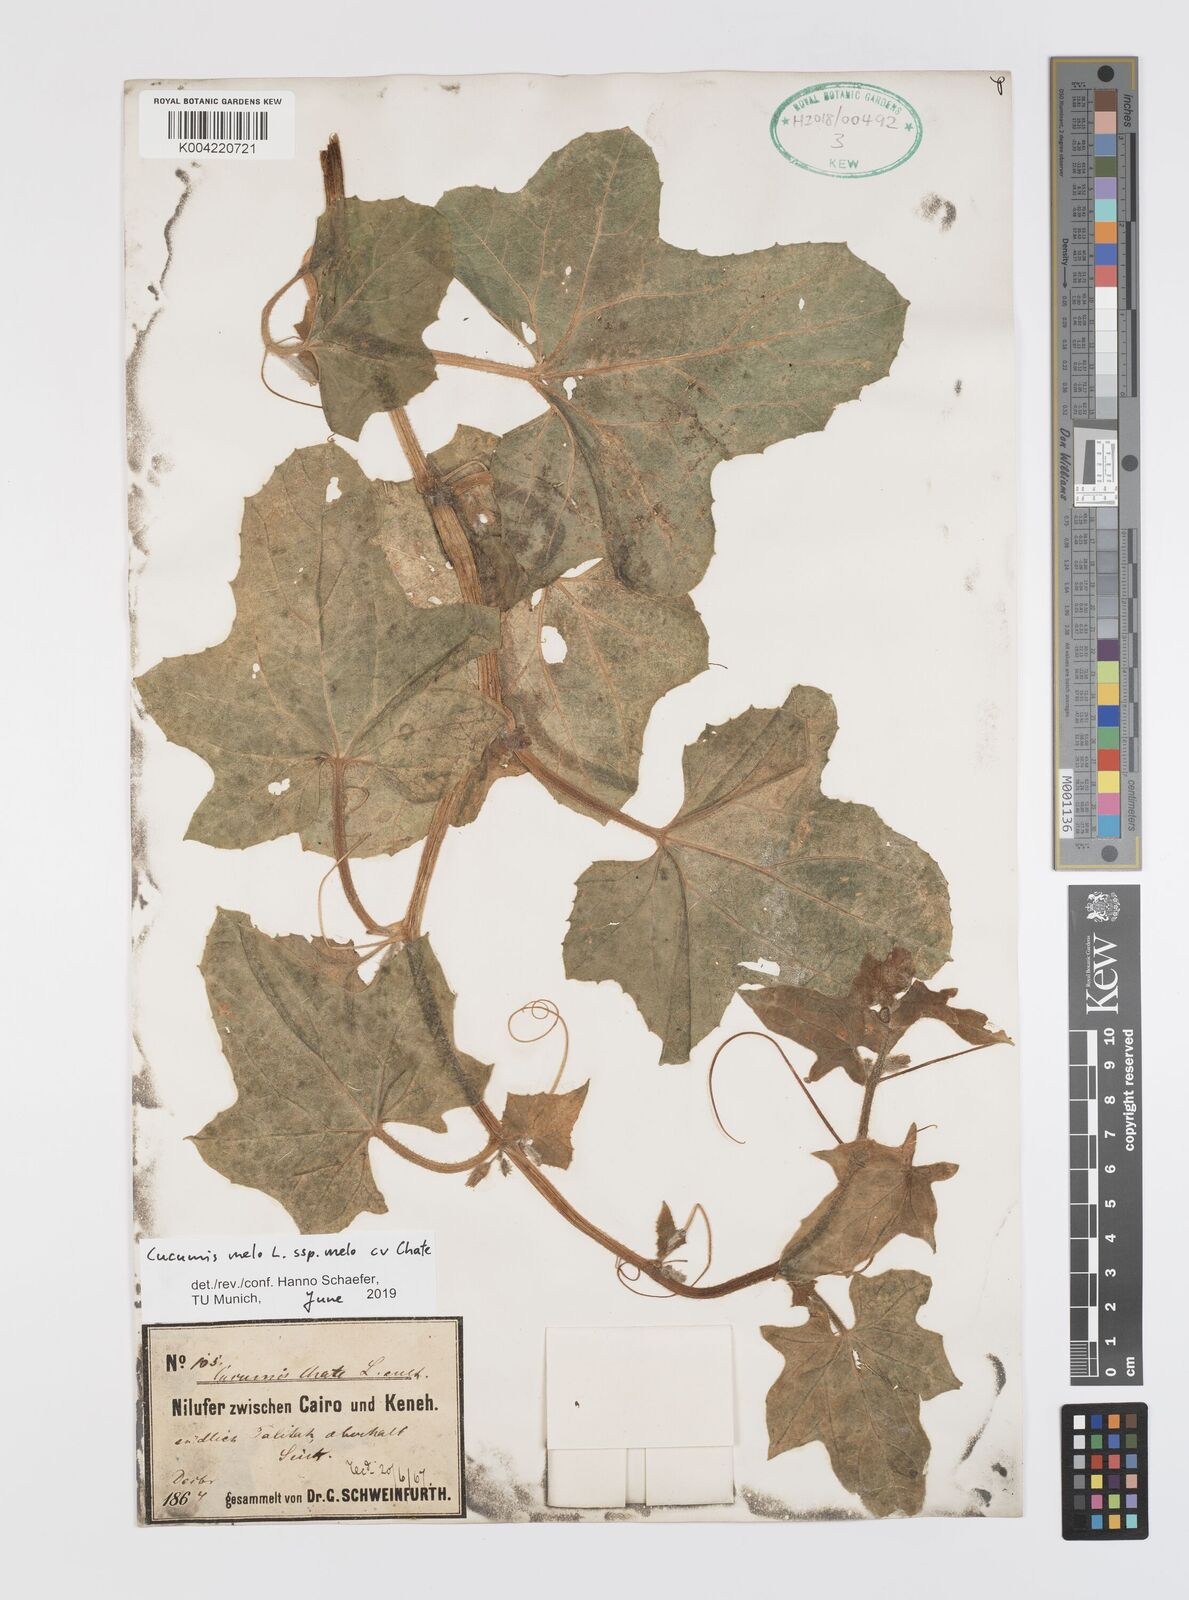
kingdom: Plantae
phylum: Tracheophyta
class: Magnoliopsida
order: Cucurbitales
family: Cucurbitaceae
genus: Cucumis
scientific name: Cucumis melo
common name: Melon
